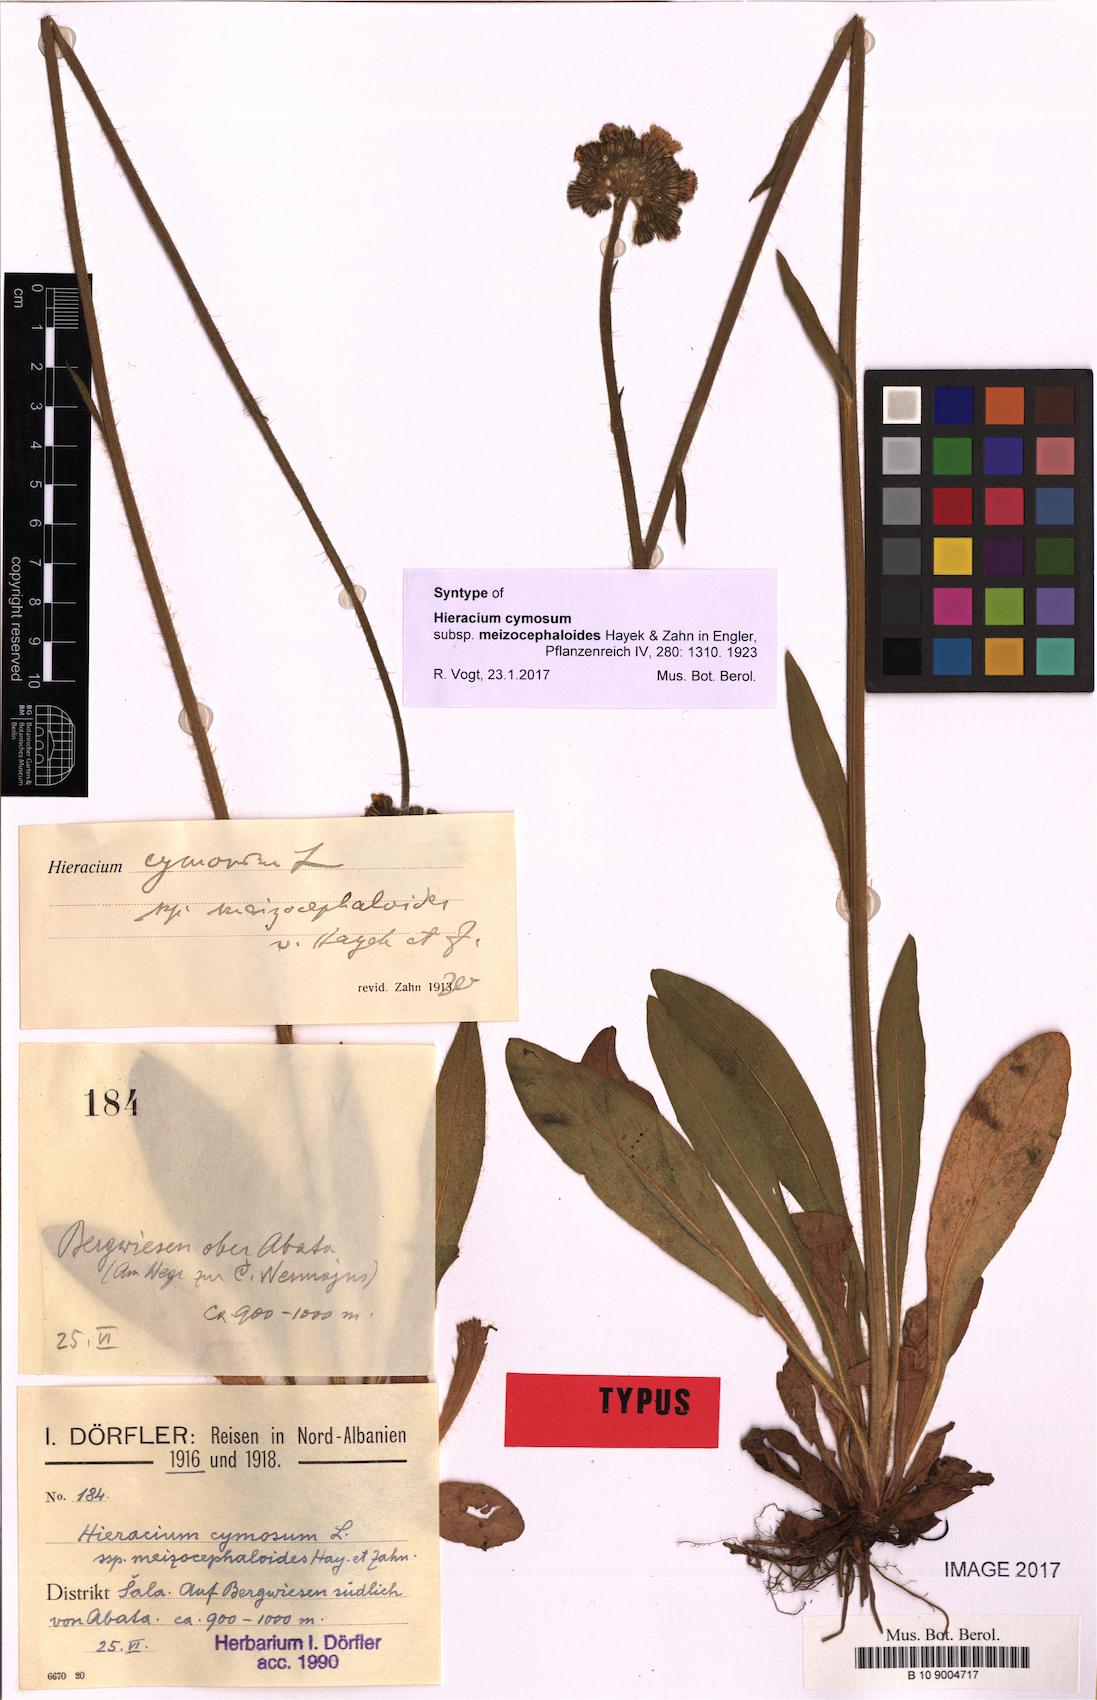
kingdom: Plantae
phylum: Tracheophyta
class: Magnoliopsida
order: Asterales
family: Asteraceae
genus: Pilosella
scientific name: Pilosella cymosa
